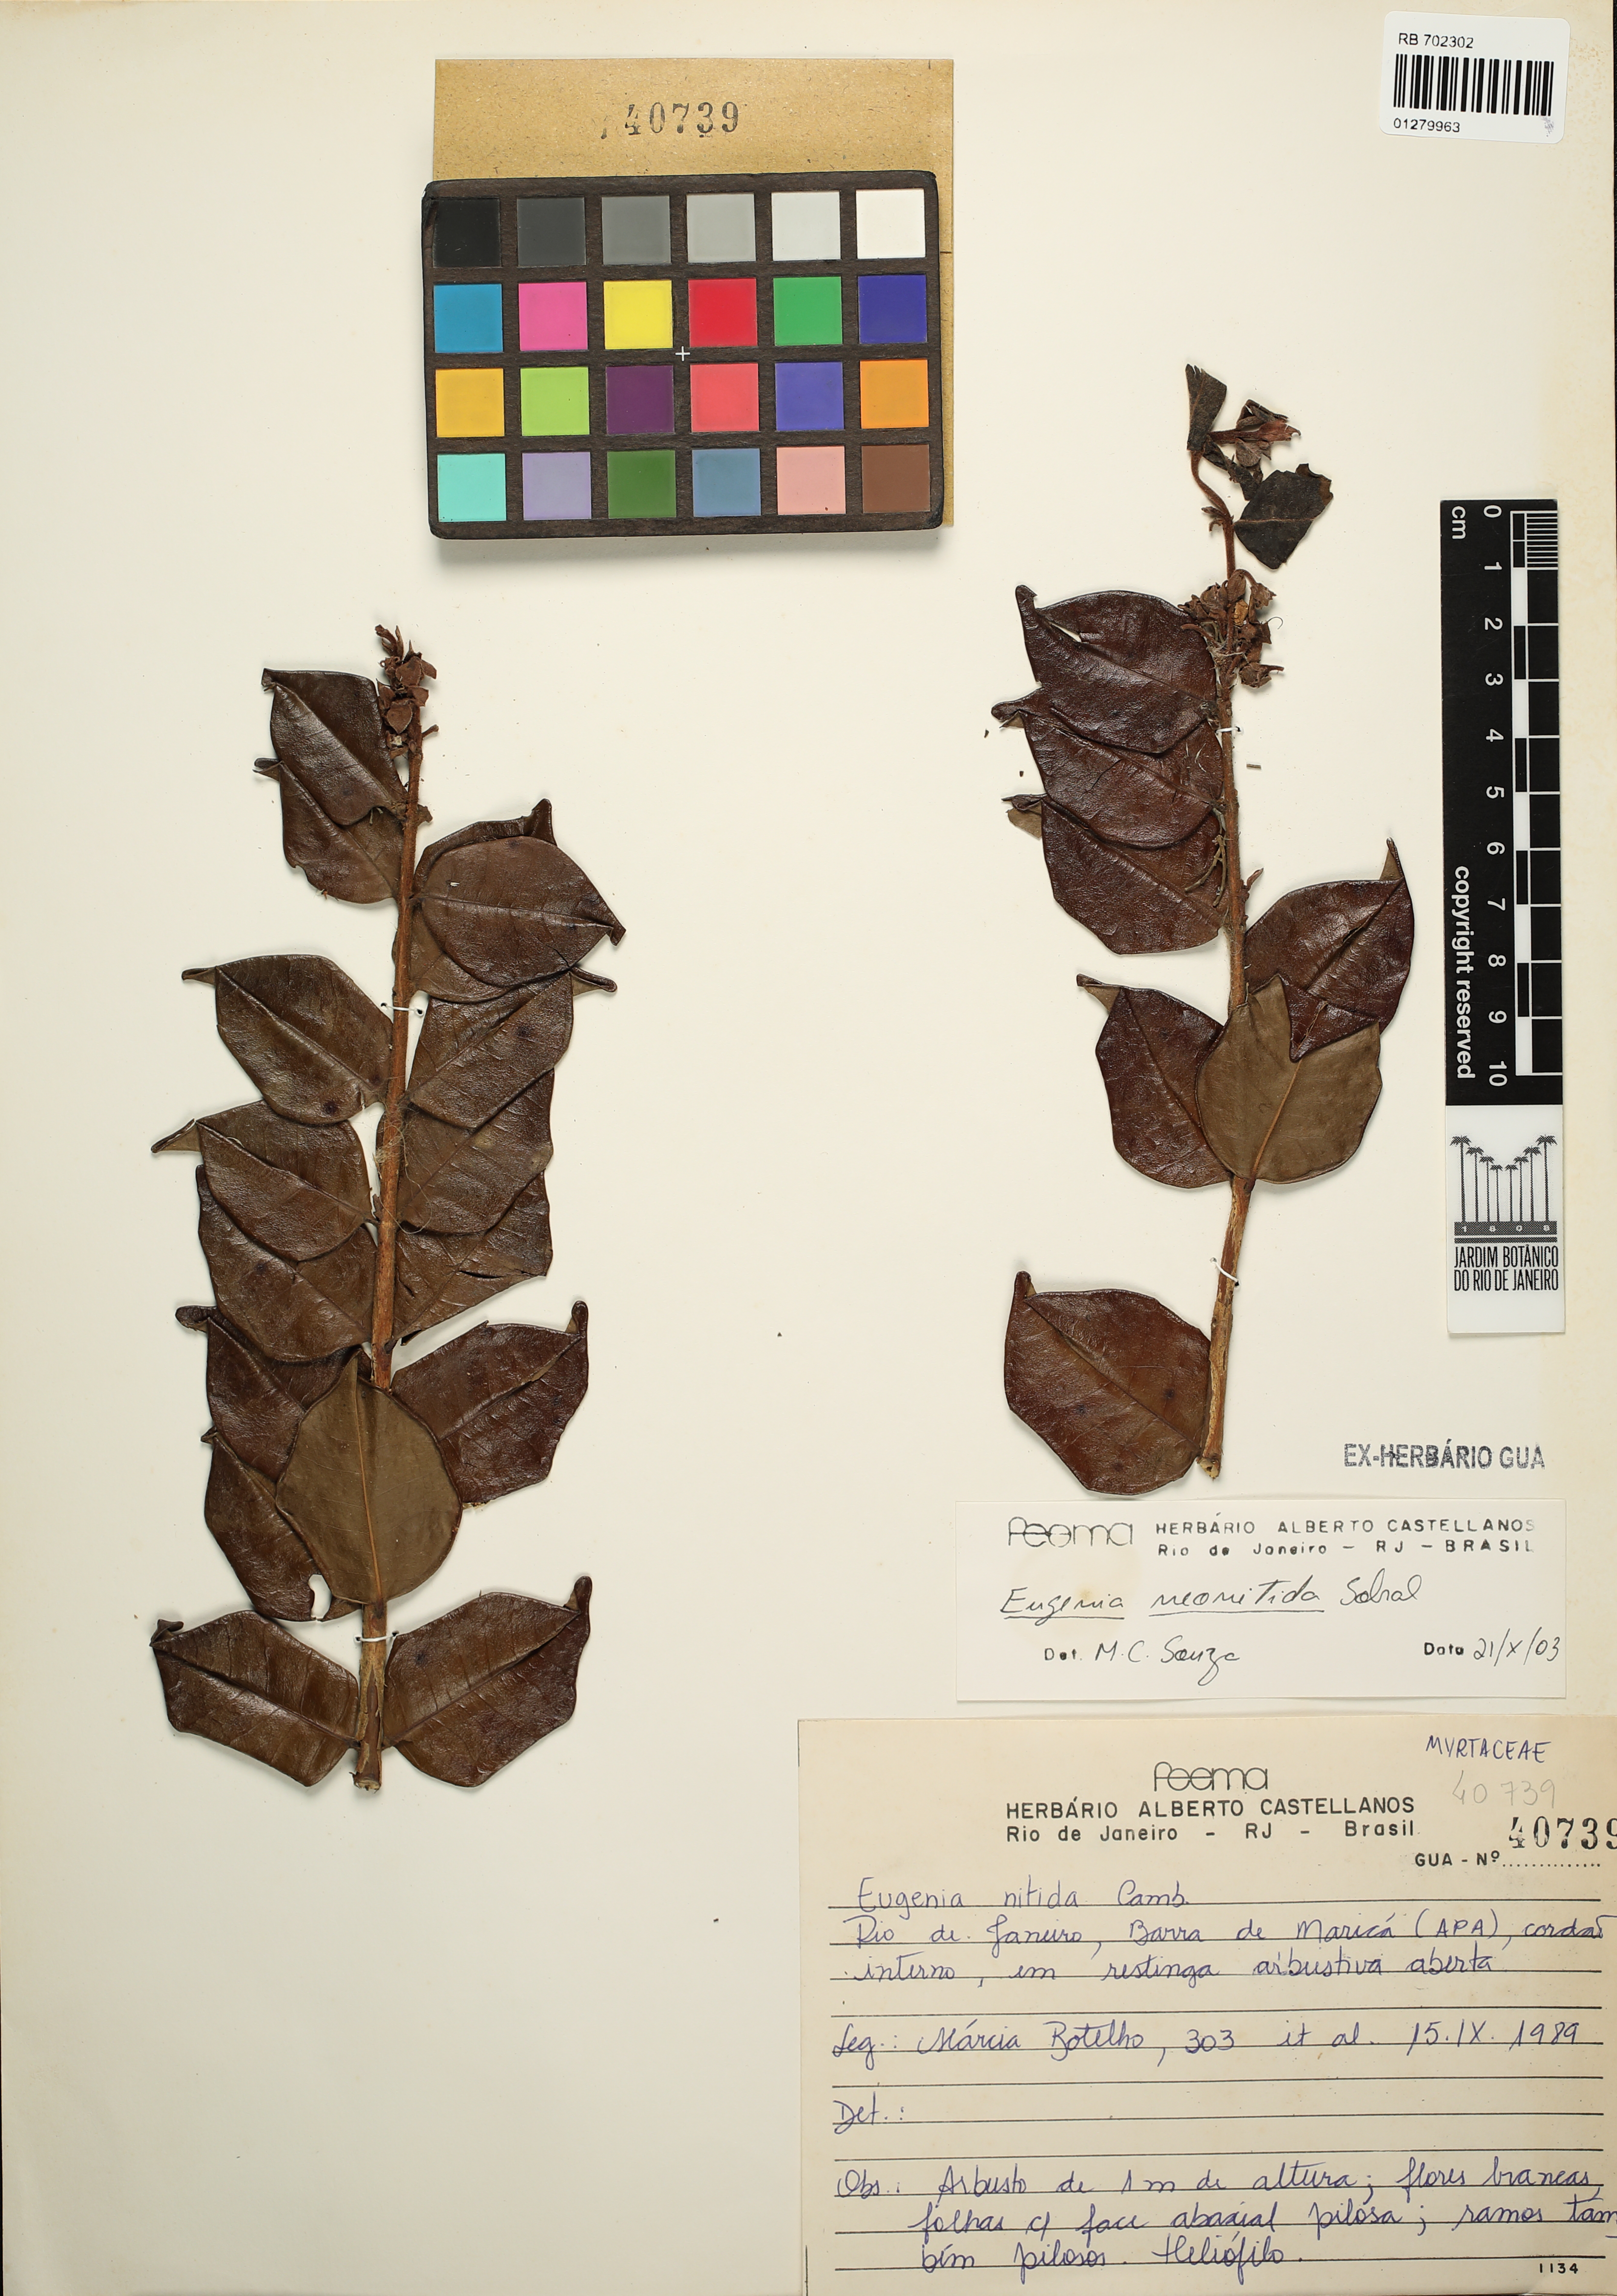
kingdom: Plantae
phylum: Tracheophyta
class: Magnoliopsida
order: Myrtales
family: Myrtaceae
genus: Eugenia
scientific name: Eugenia selloi
